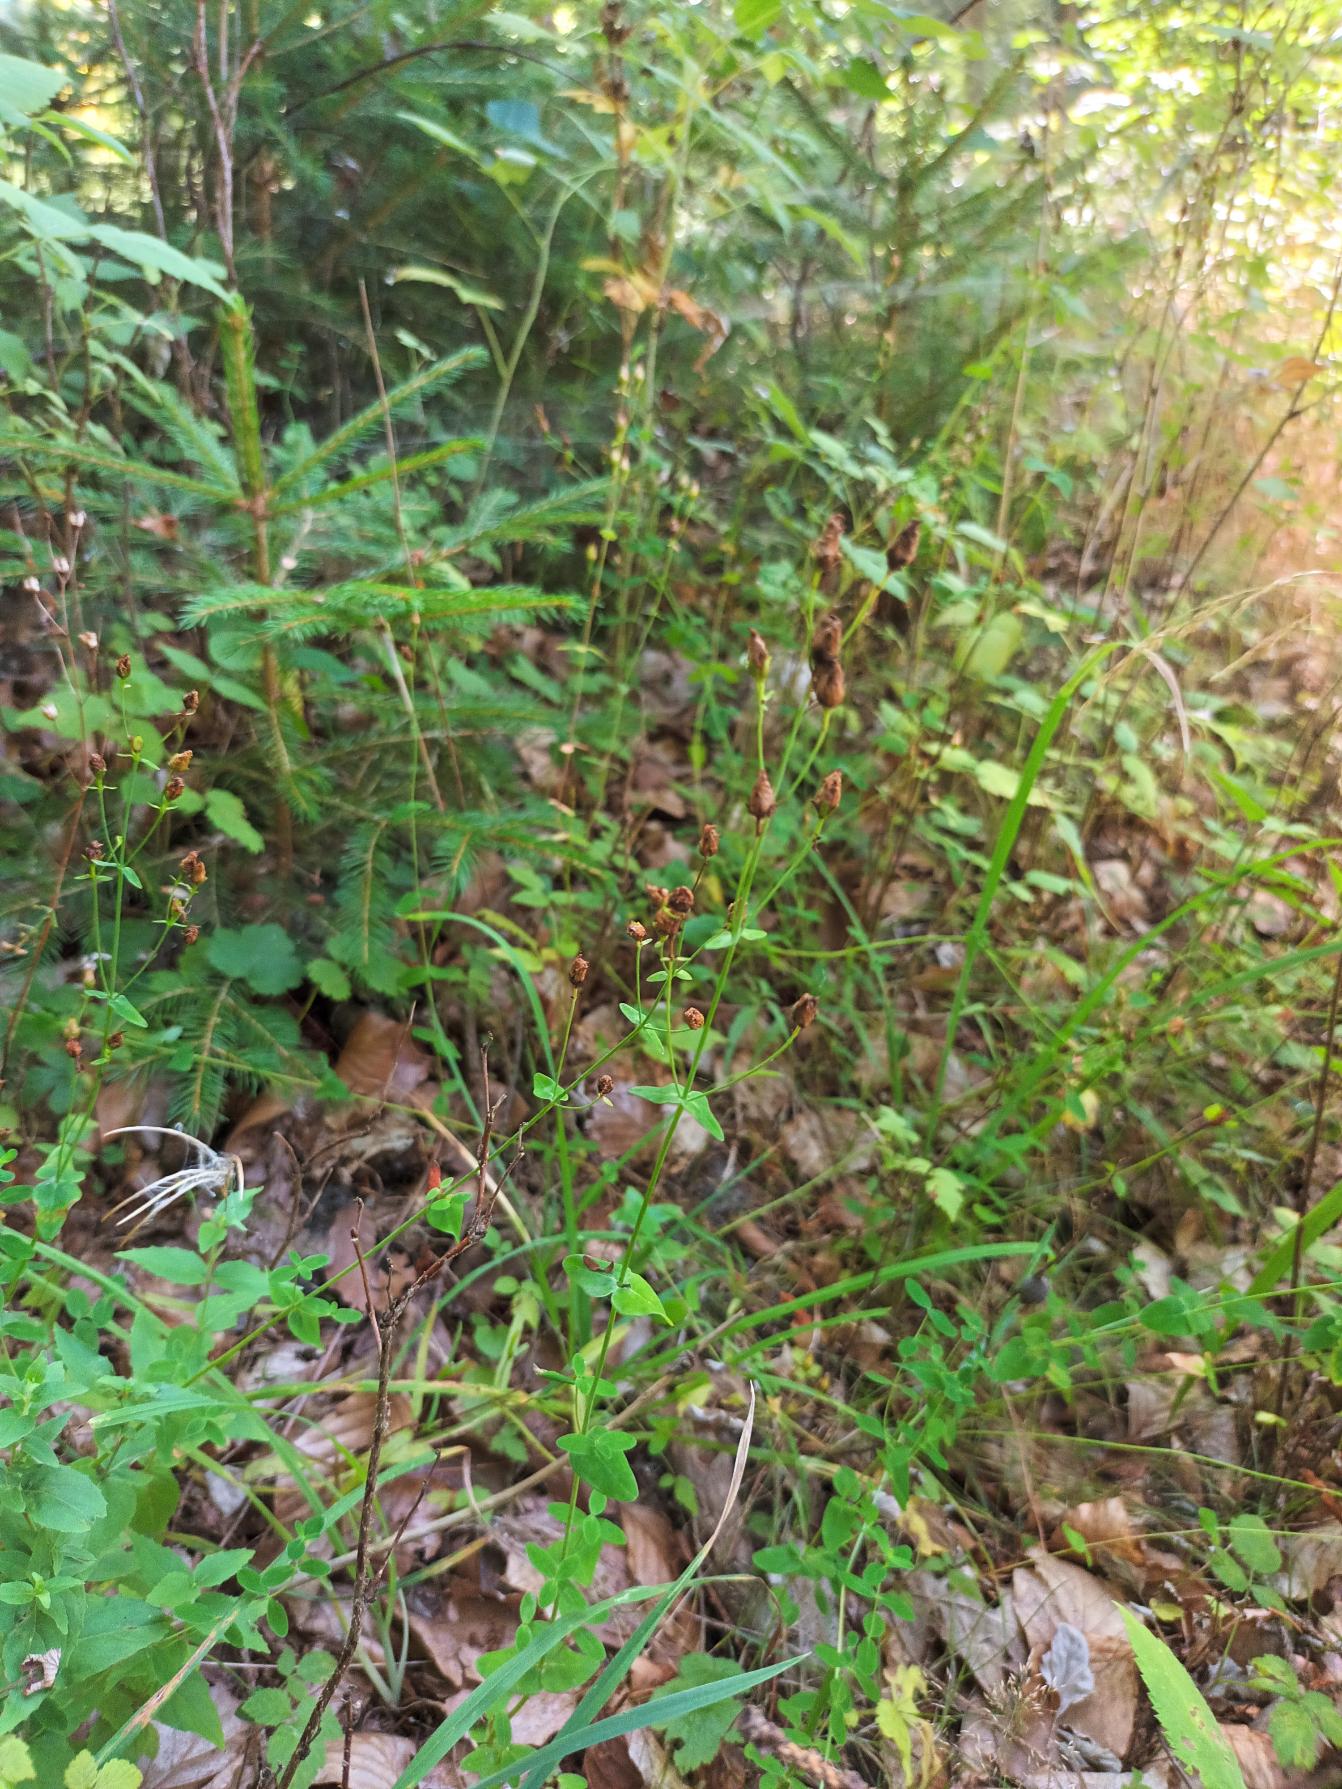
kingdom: Plantae
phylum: Tracheophyta
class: Magnoliopsida
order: Malpighiales
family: Hypericaceae
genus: Hypericum
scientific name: Hypericum pulchrum
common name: Smuk perikon
